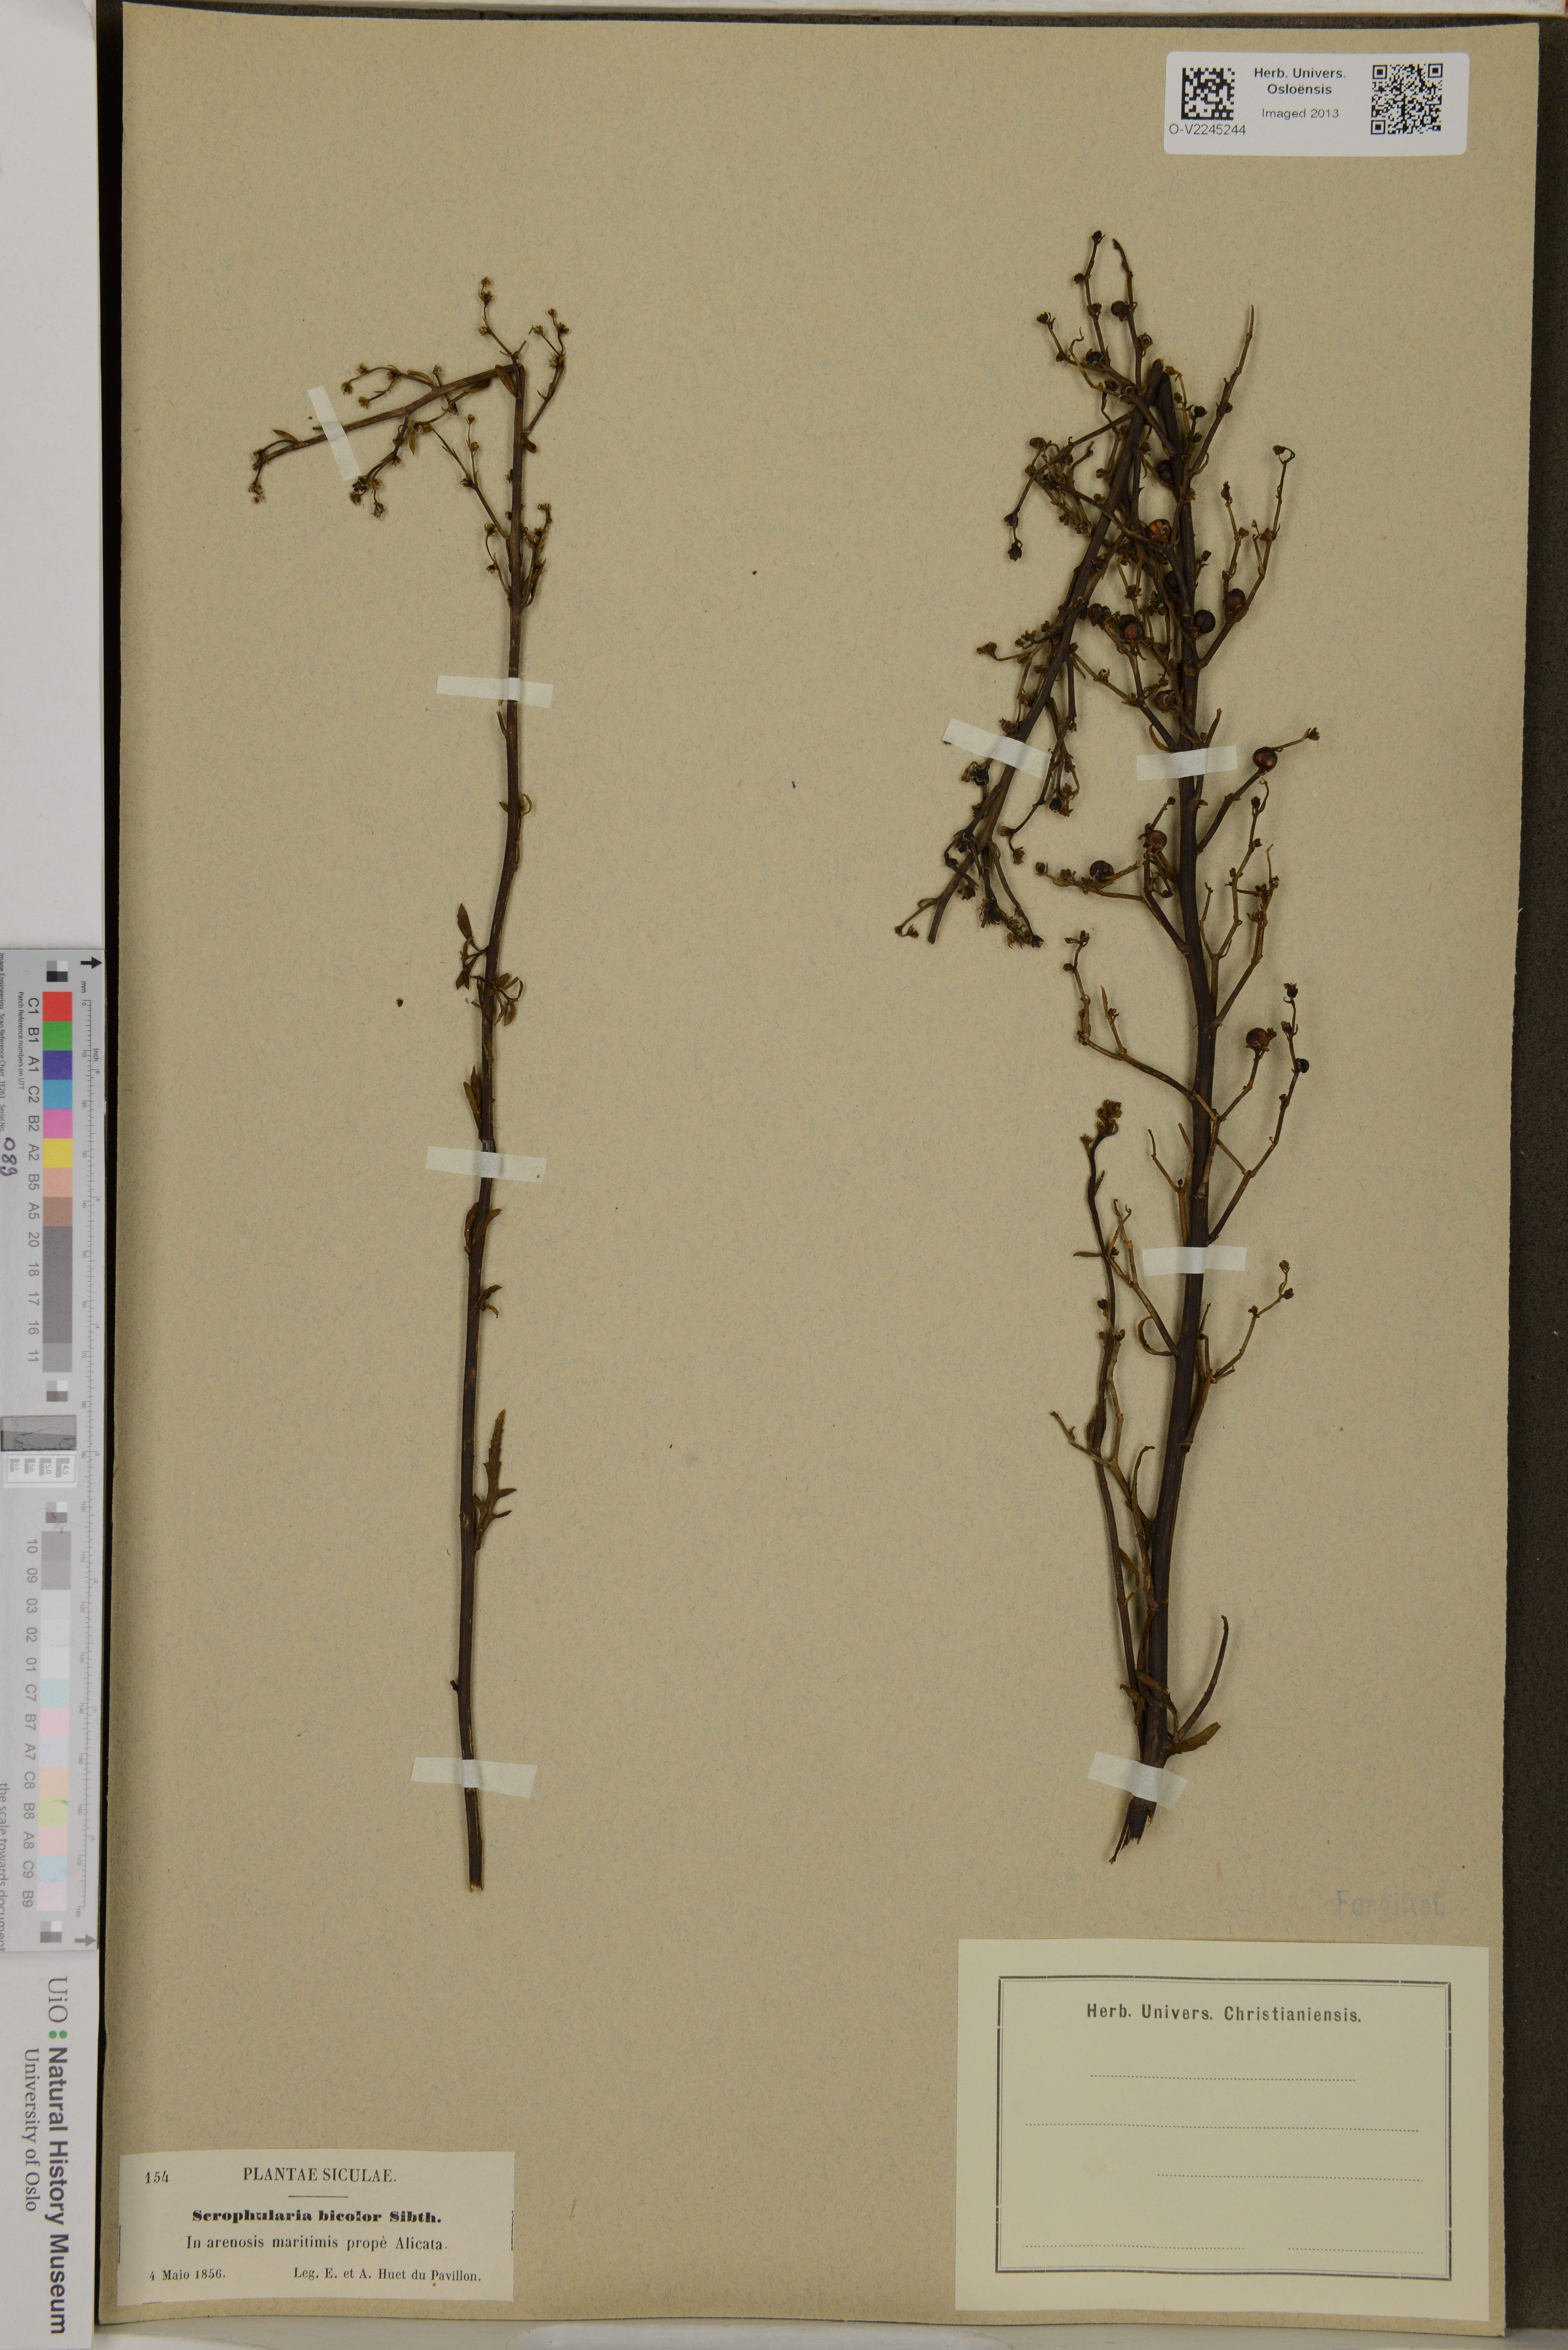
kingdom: Plantae
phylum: Tracheophyta
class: Magnoliopsida
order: Lamiales
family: Scrophulariaceae
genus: Scrophularia
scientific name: Scrophularia
